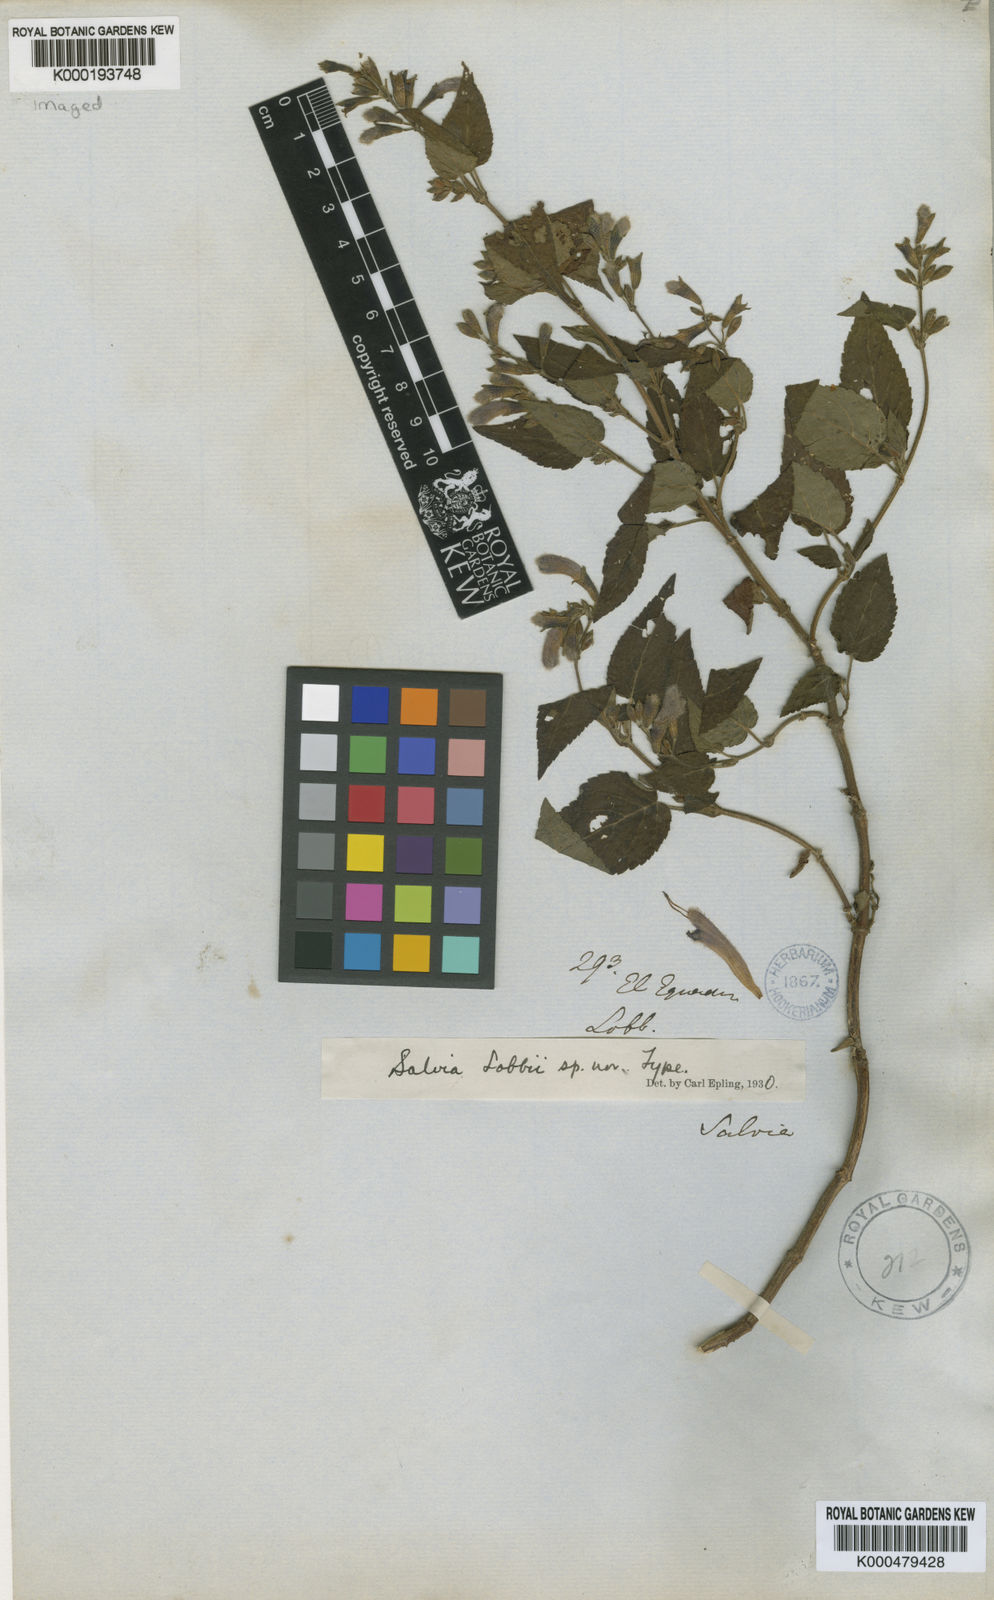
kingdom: Plantae
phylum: Tracheophyta
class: Magnoliopsida
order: Lamiales
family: Lamiaceae
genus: Salvia
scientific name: Salvia lobbii
